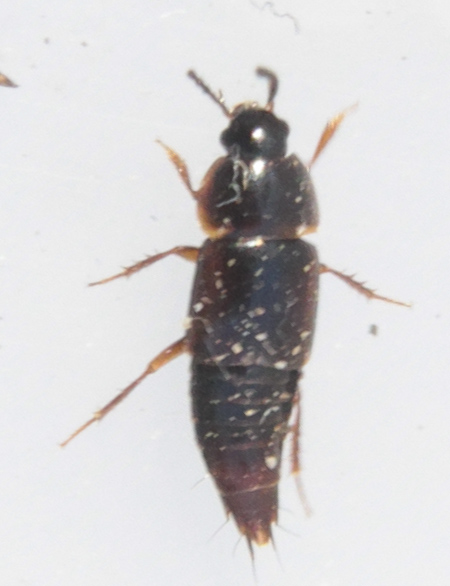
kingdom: Animalia
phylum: Arthropoda
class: Insecta
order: Coleoptera
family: Staphylinidae
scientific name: Staphylinidae
